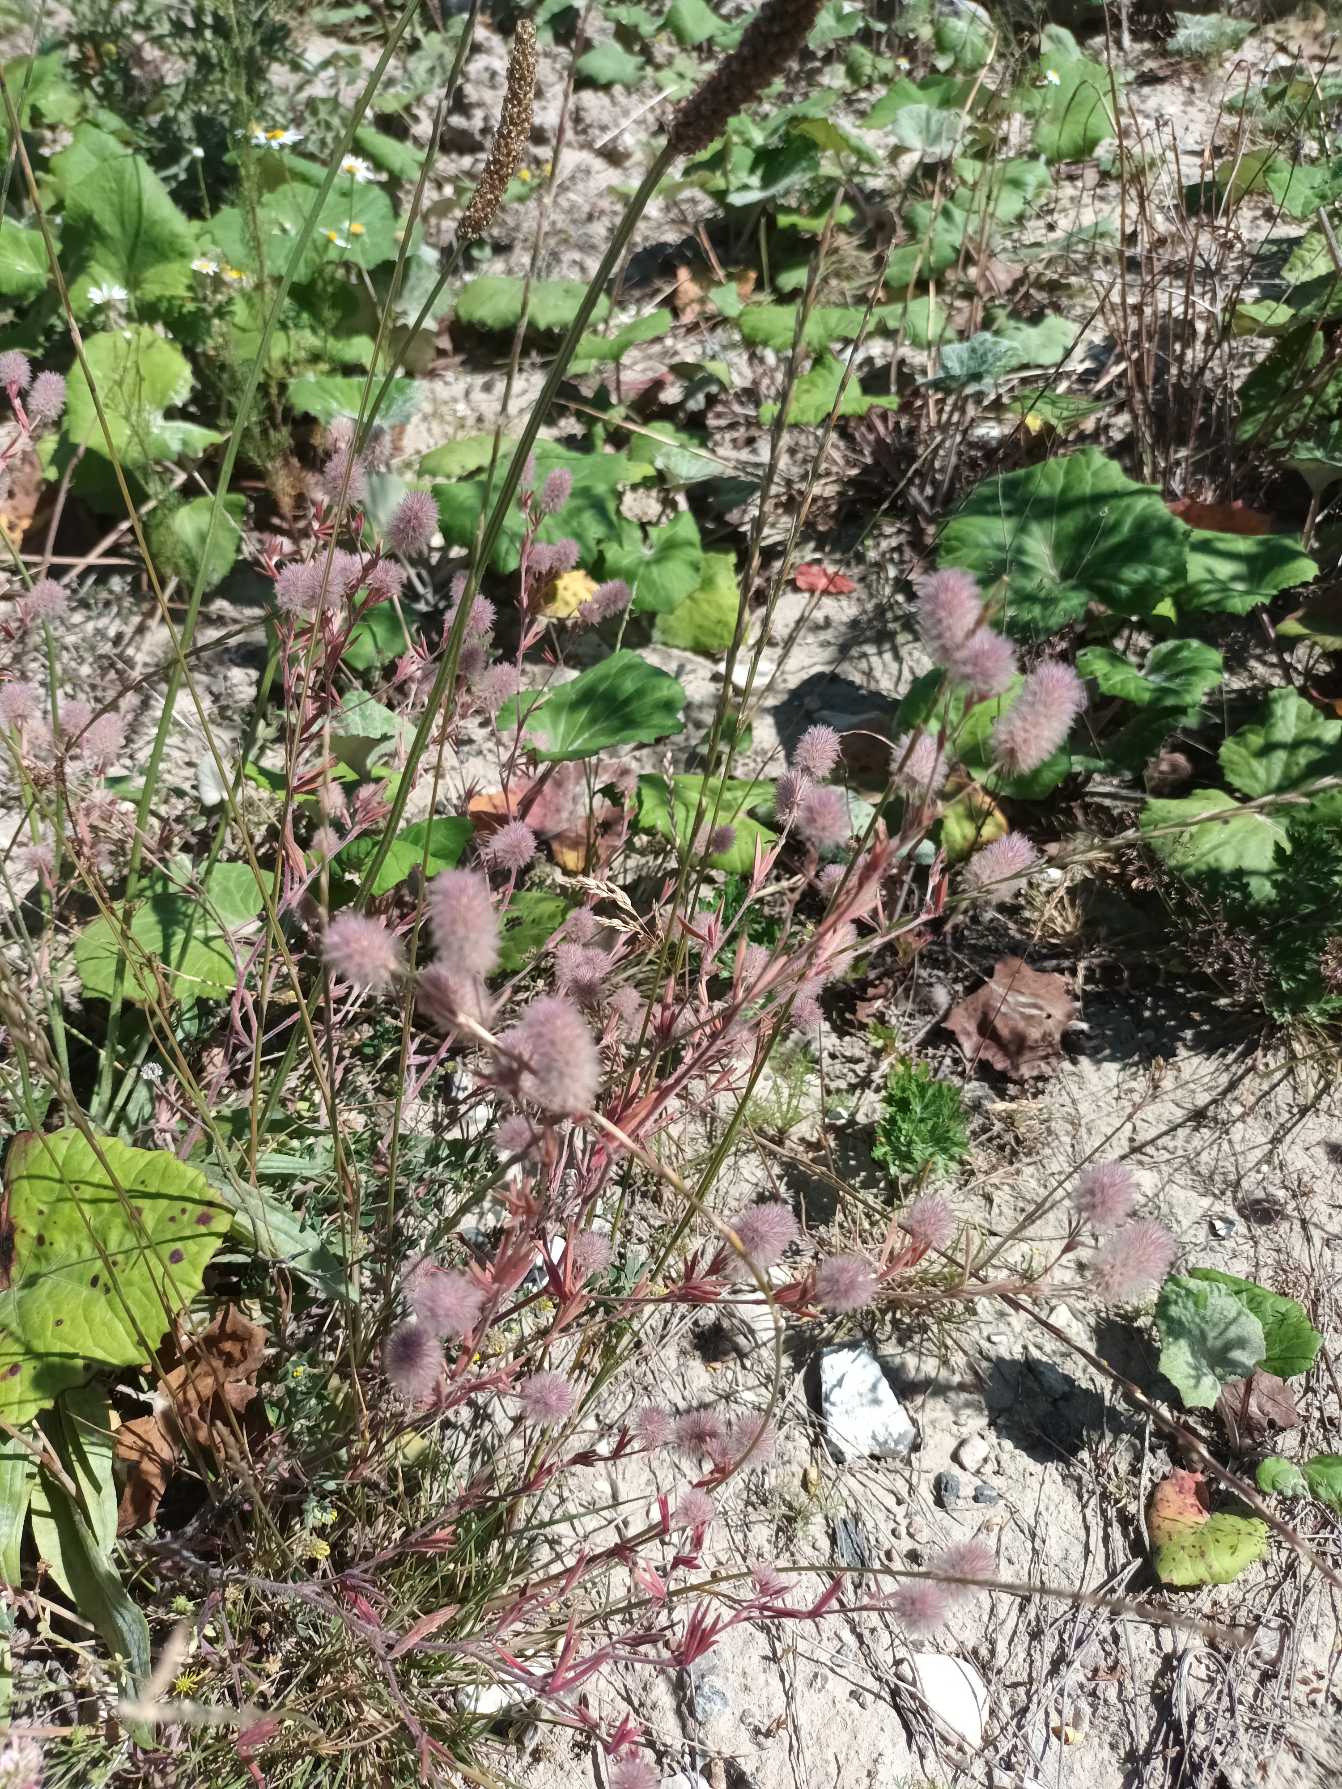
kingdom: Plantae
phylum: Tracheophyta
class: Magnoliopsida
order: Fabales
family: Fabaceae
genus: Trifolium
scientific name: Trifolium arvense
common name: Hare-kløver
